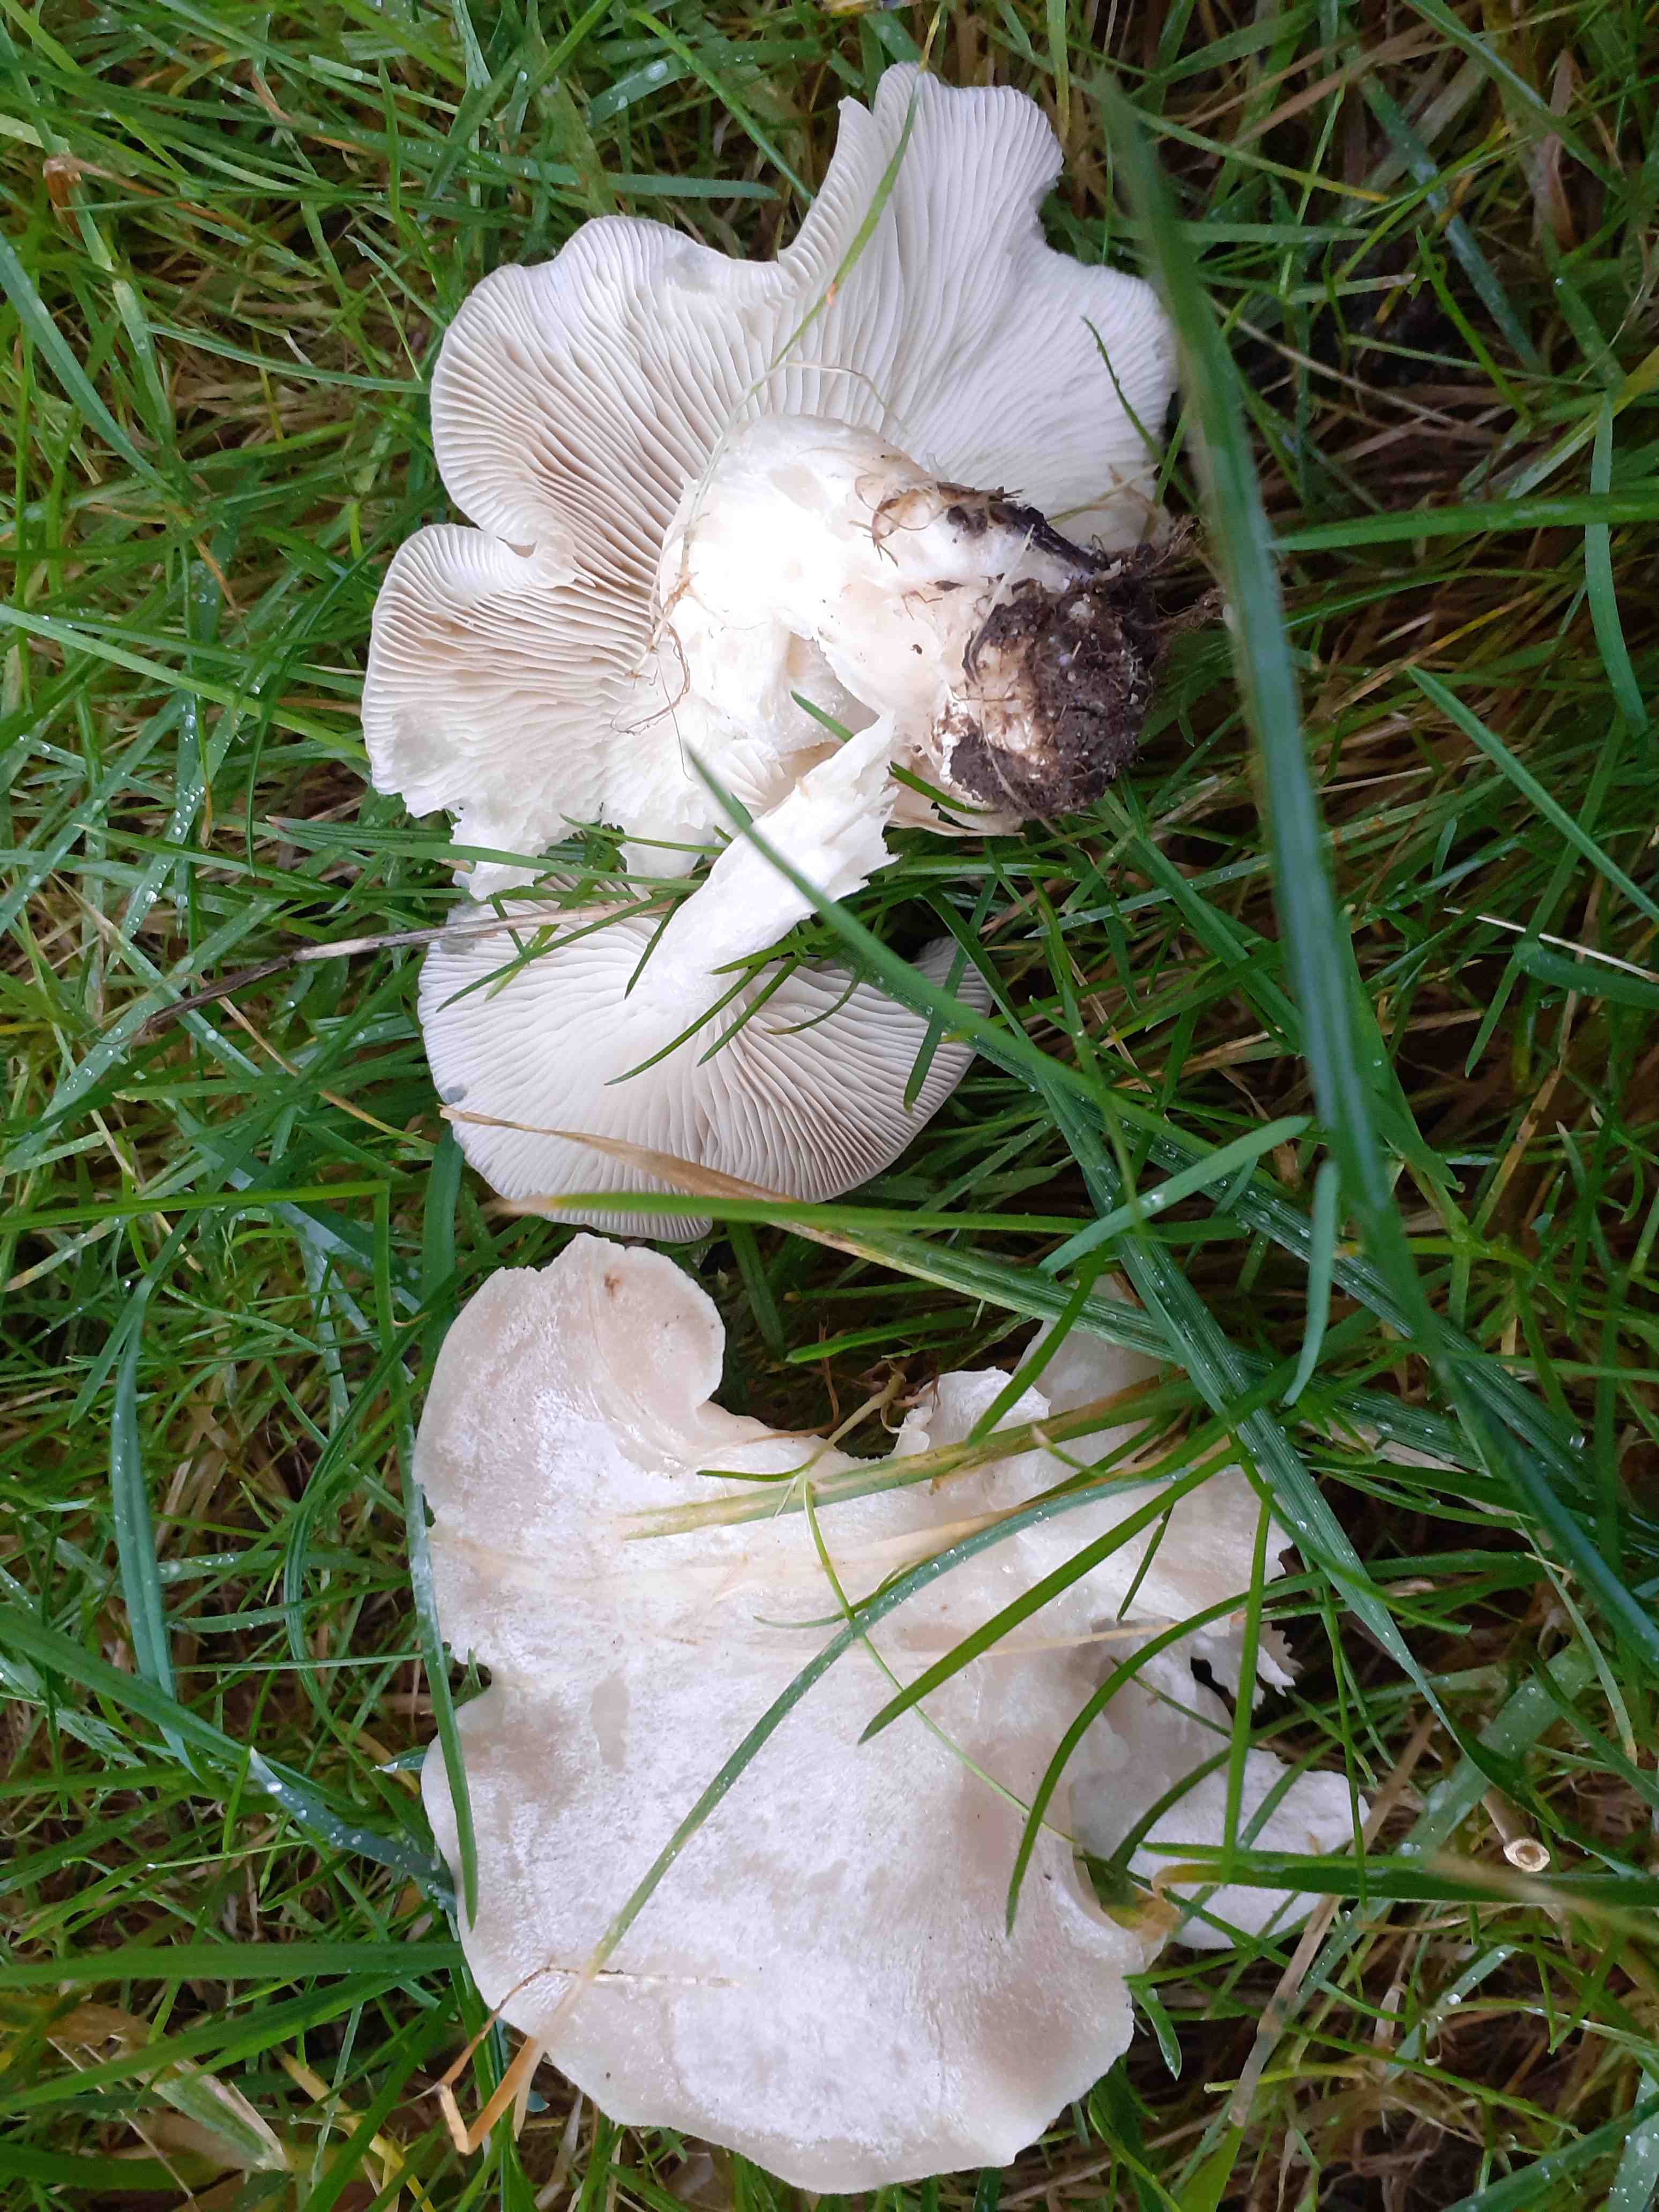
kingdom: Fungi
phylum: Basidiomycota
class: Agaricomycetes
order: Agaricales
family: Tricholomataceae
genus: Leucocybe
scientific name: Leucocybe connata
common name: knippe-tragthat
